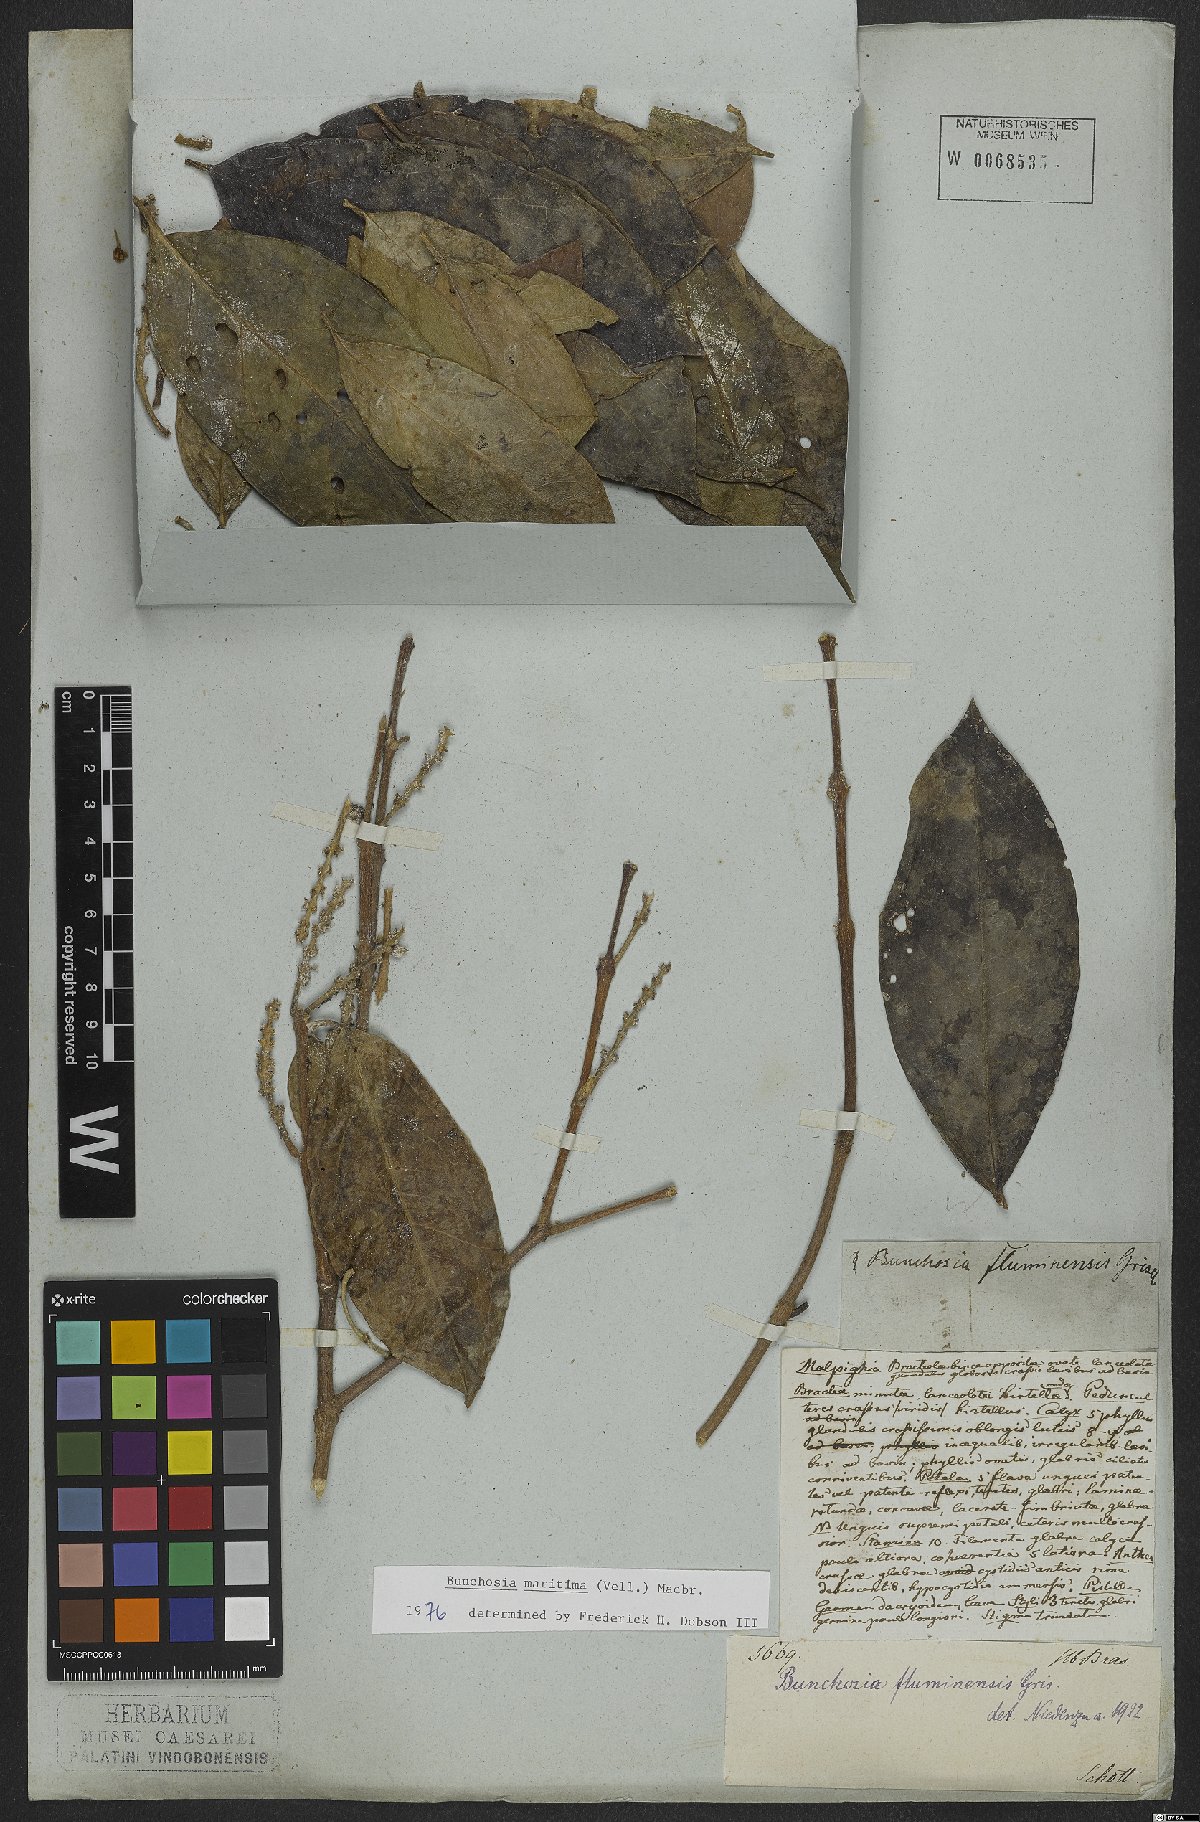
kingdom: Plantae
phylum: Tracheophyta
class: Magnoliopsida
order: Malpighiales
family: Malpighiaceae
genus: Bunchosia
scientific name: Bunchosia maritima
